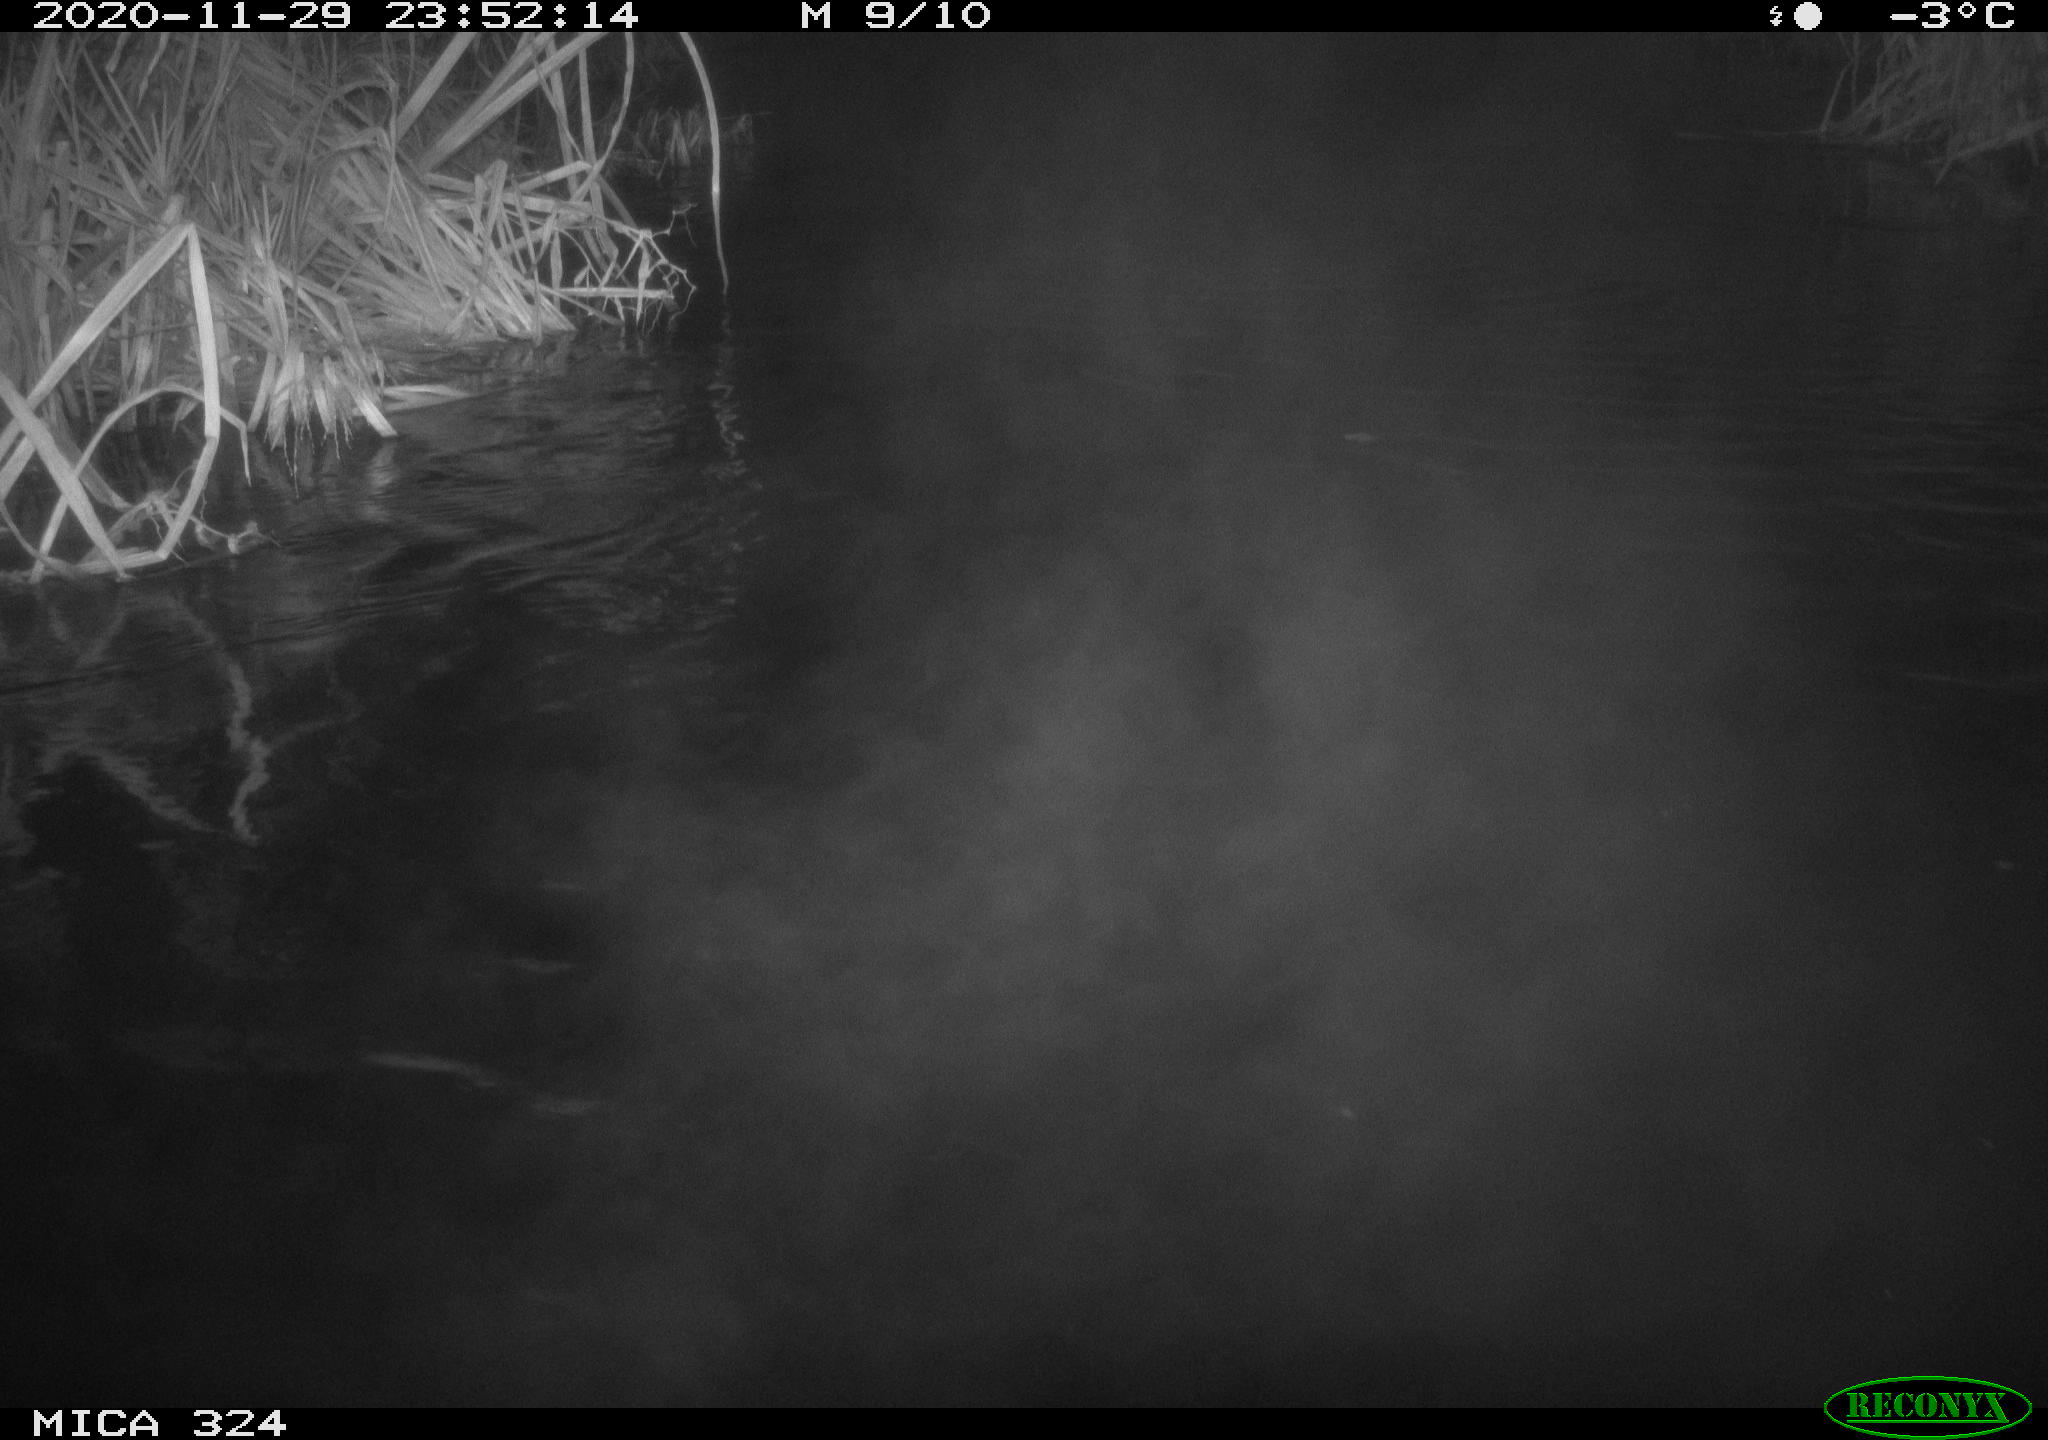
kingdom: Animalia
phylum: Chordata
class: Mammalia
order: Rodentia
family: Cricetidae
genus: Ondatra
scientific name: Ondatra zibethicus
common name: Muskrat
